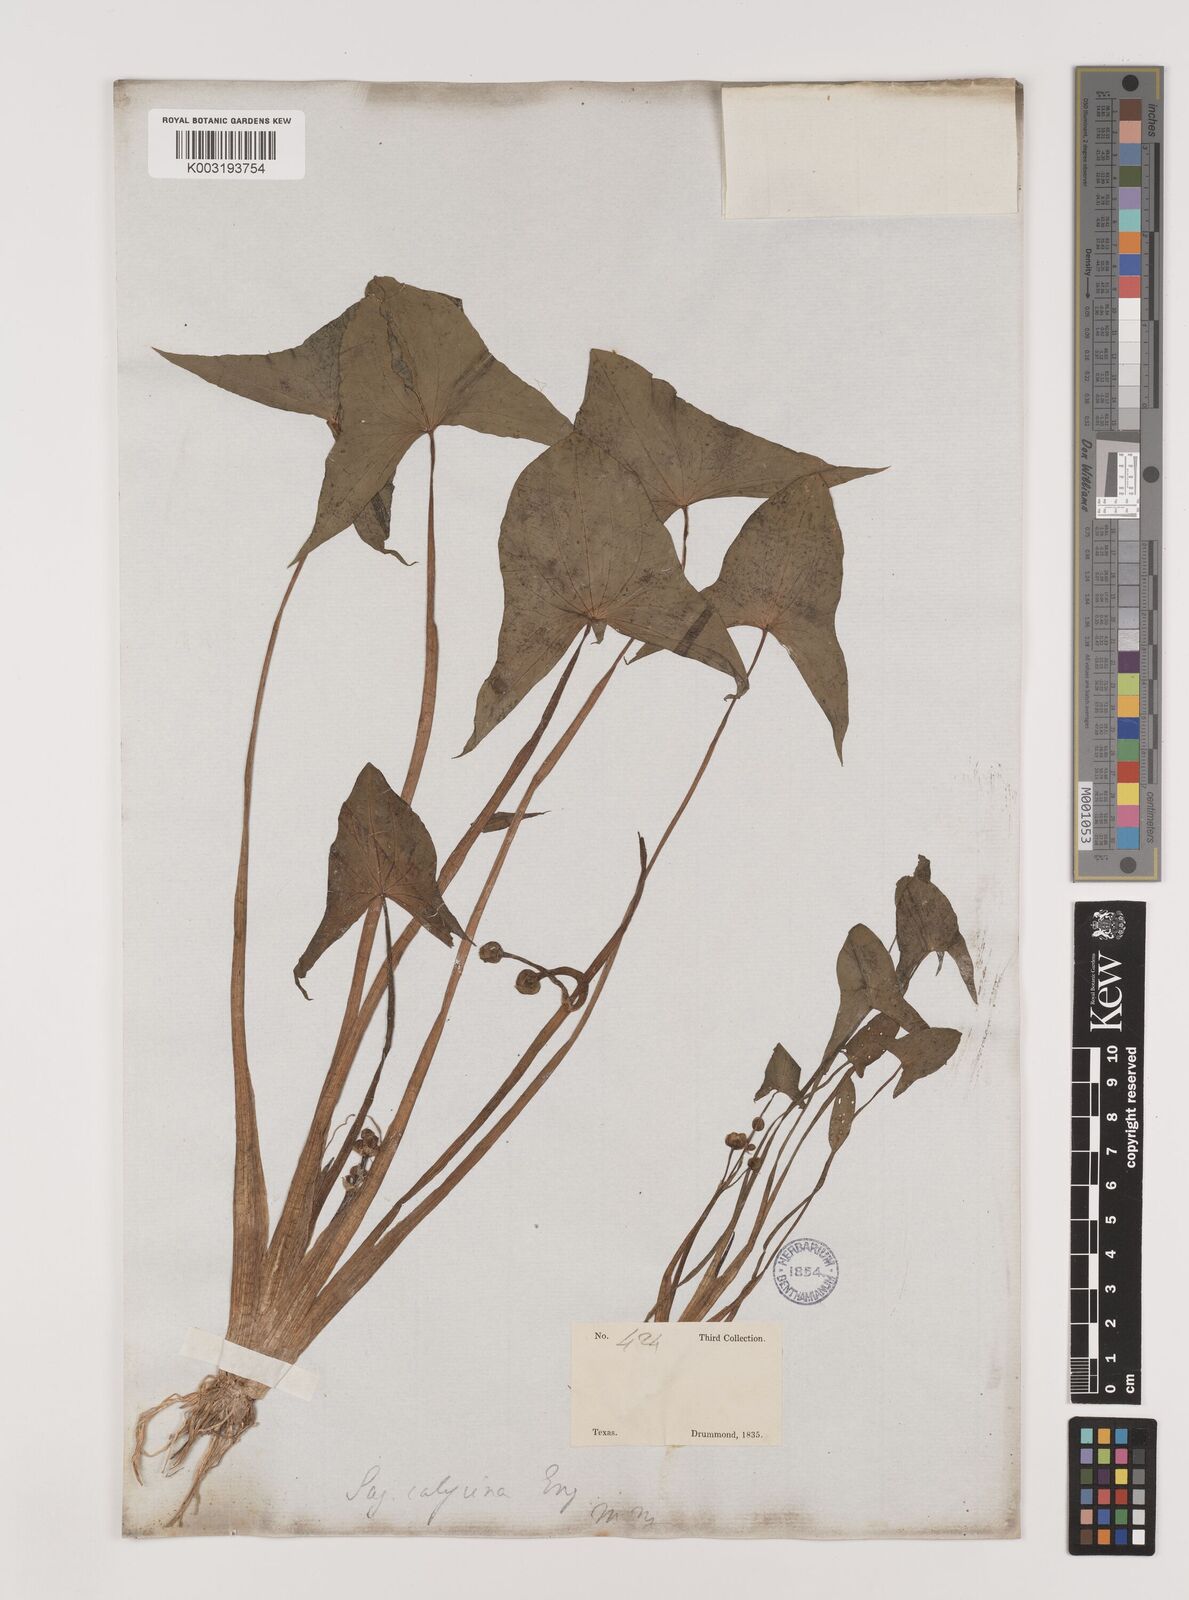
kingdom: Plantae
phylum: Tracheophyta
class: Liliopsida
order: Alismatales
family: Alismataceae
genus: Sagittaria
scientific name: Sagittaria montevidensis
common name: Giant arrowhead
